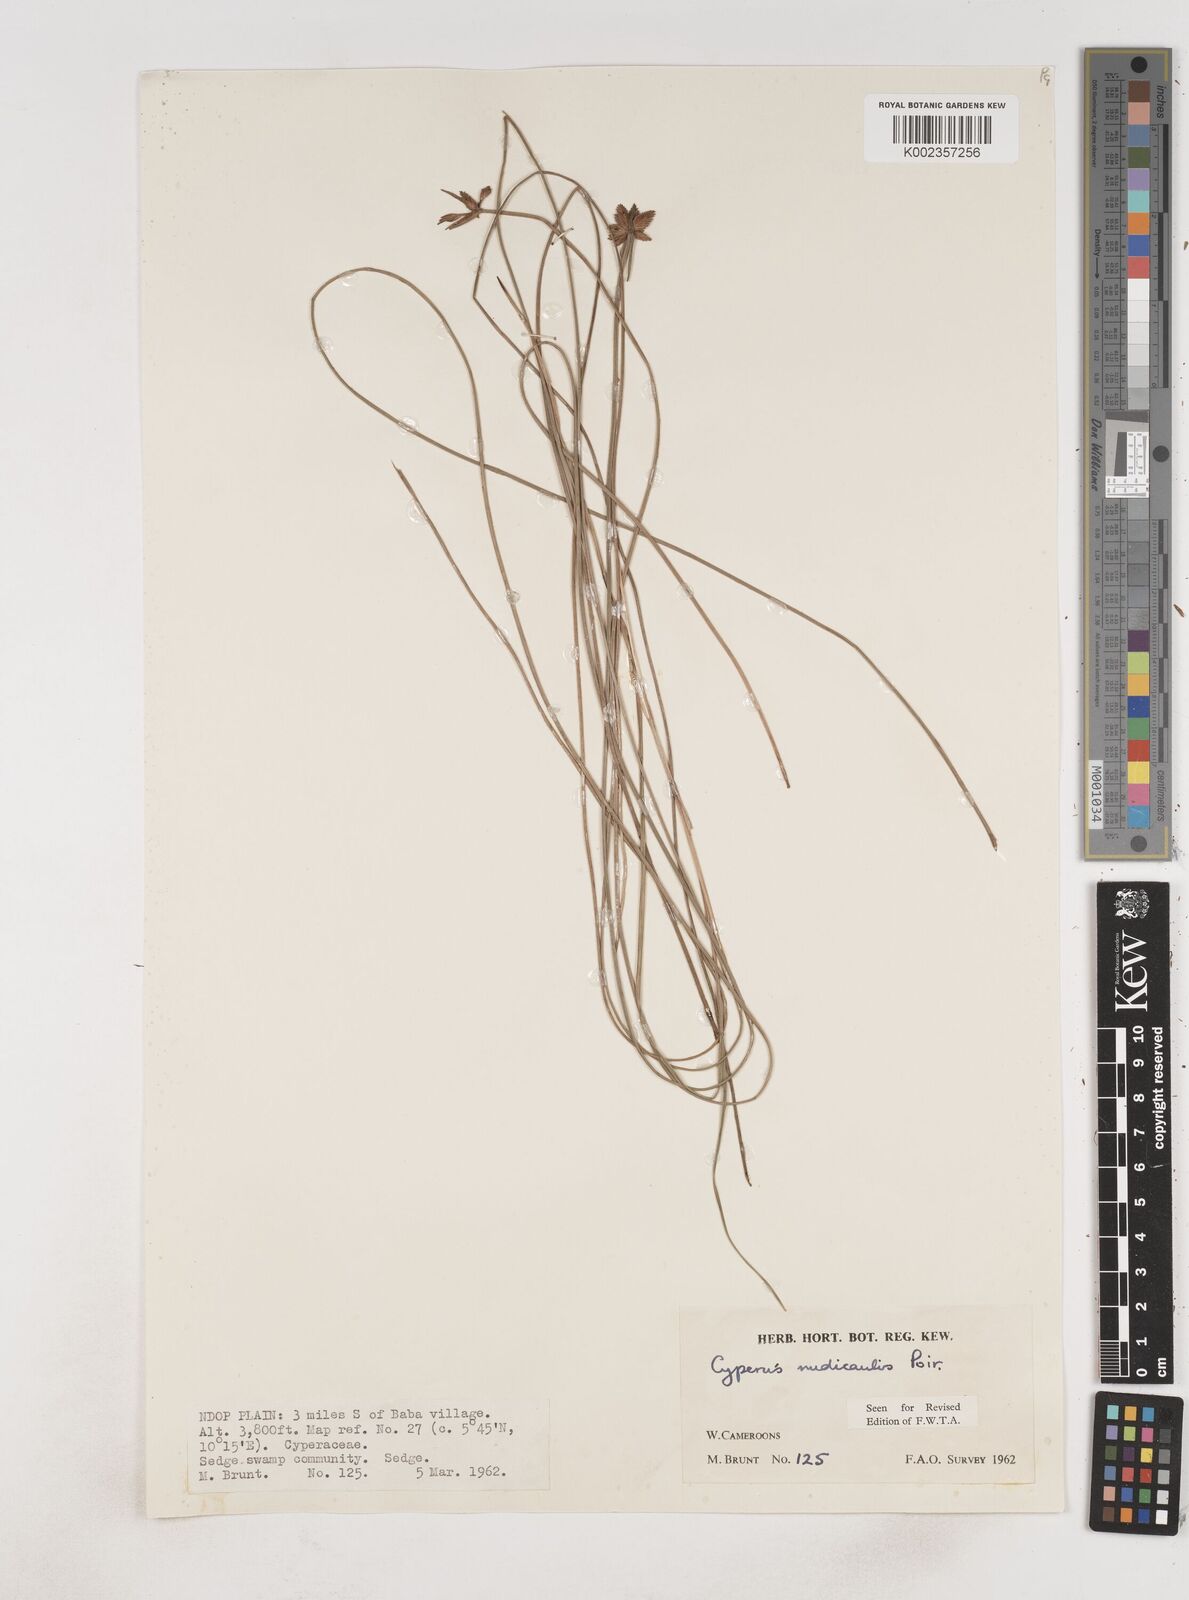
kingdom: Plantae
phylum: Tracheophyta
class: Liliopsida
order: Poales
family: Cyperaceae
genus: Cyperus
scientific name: Cyperus pectinatus
